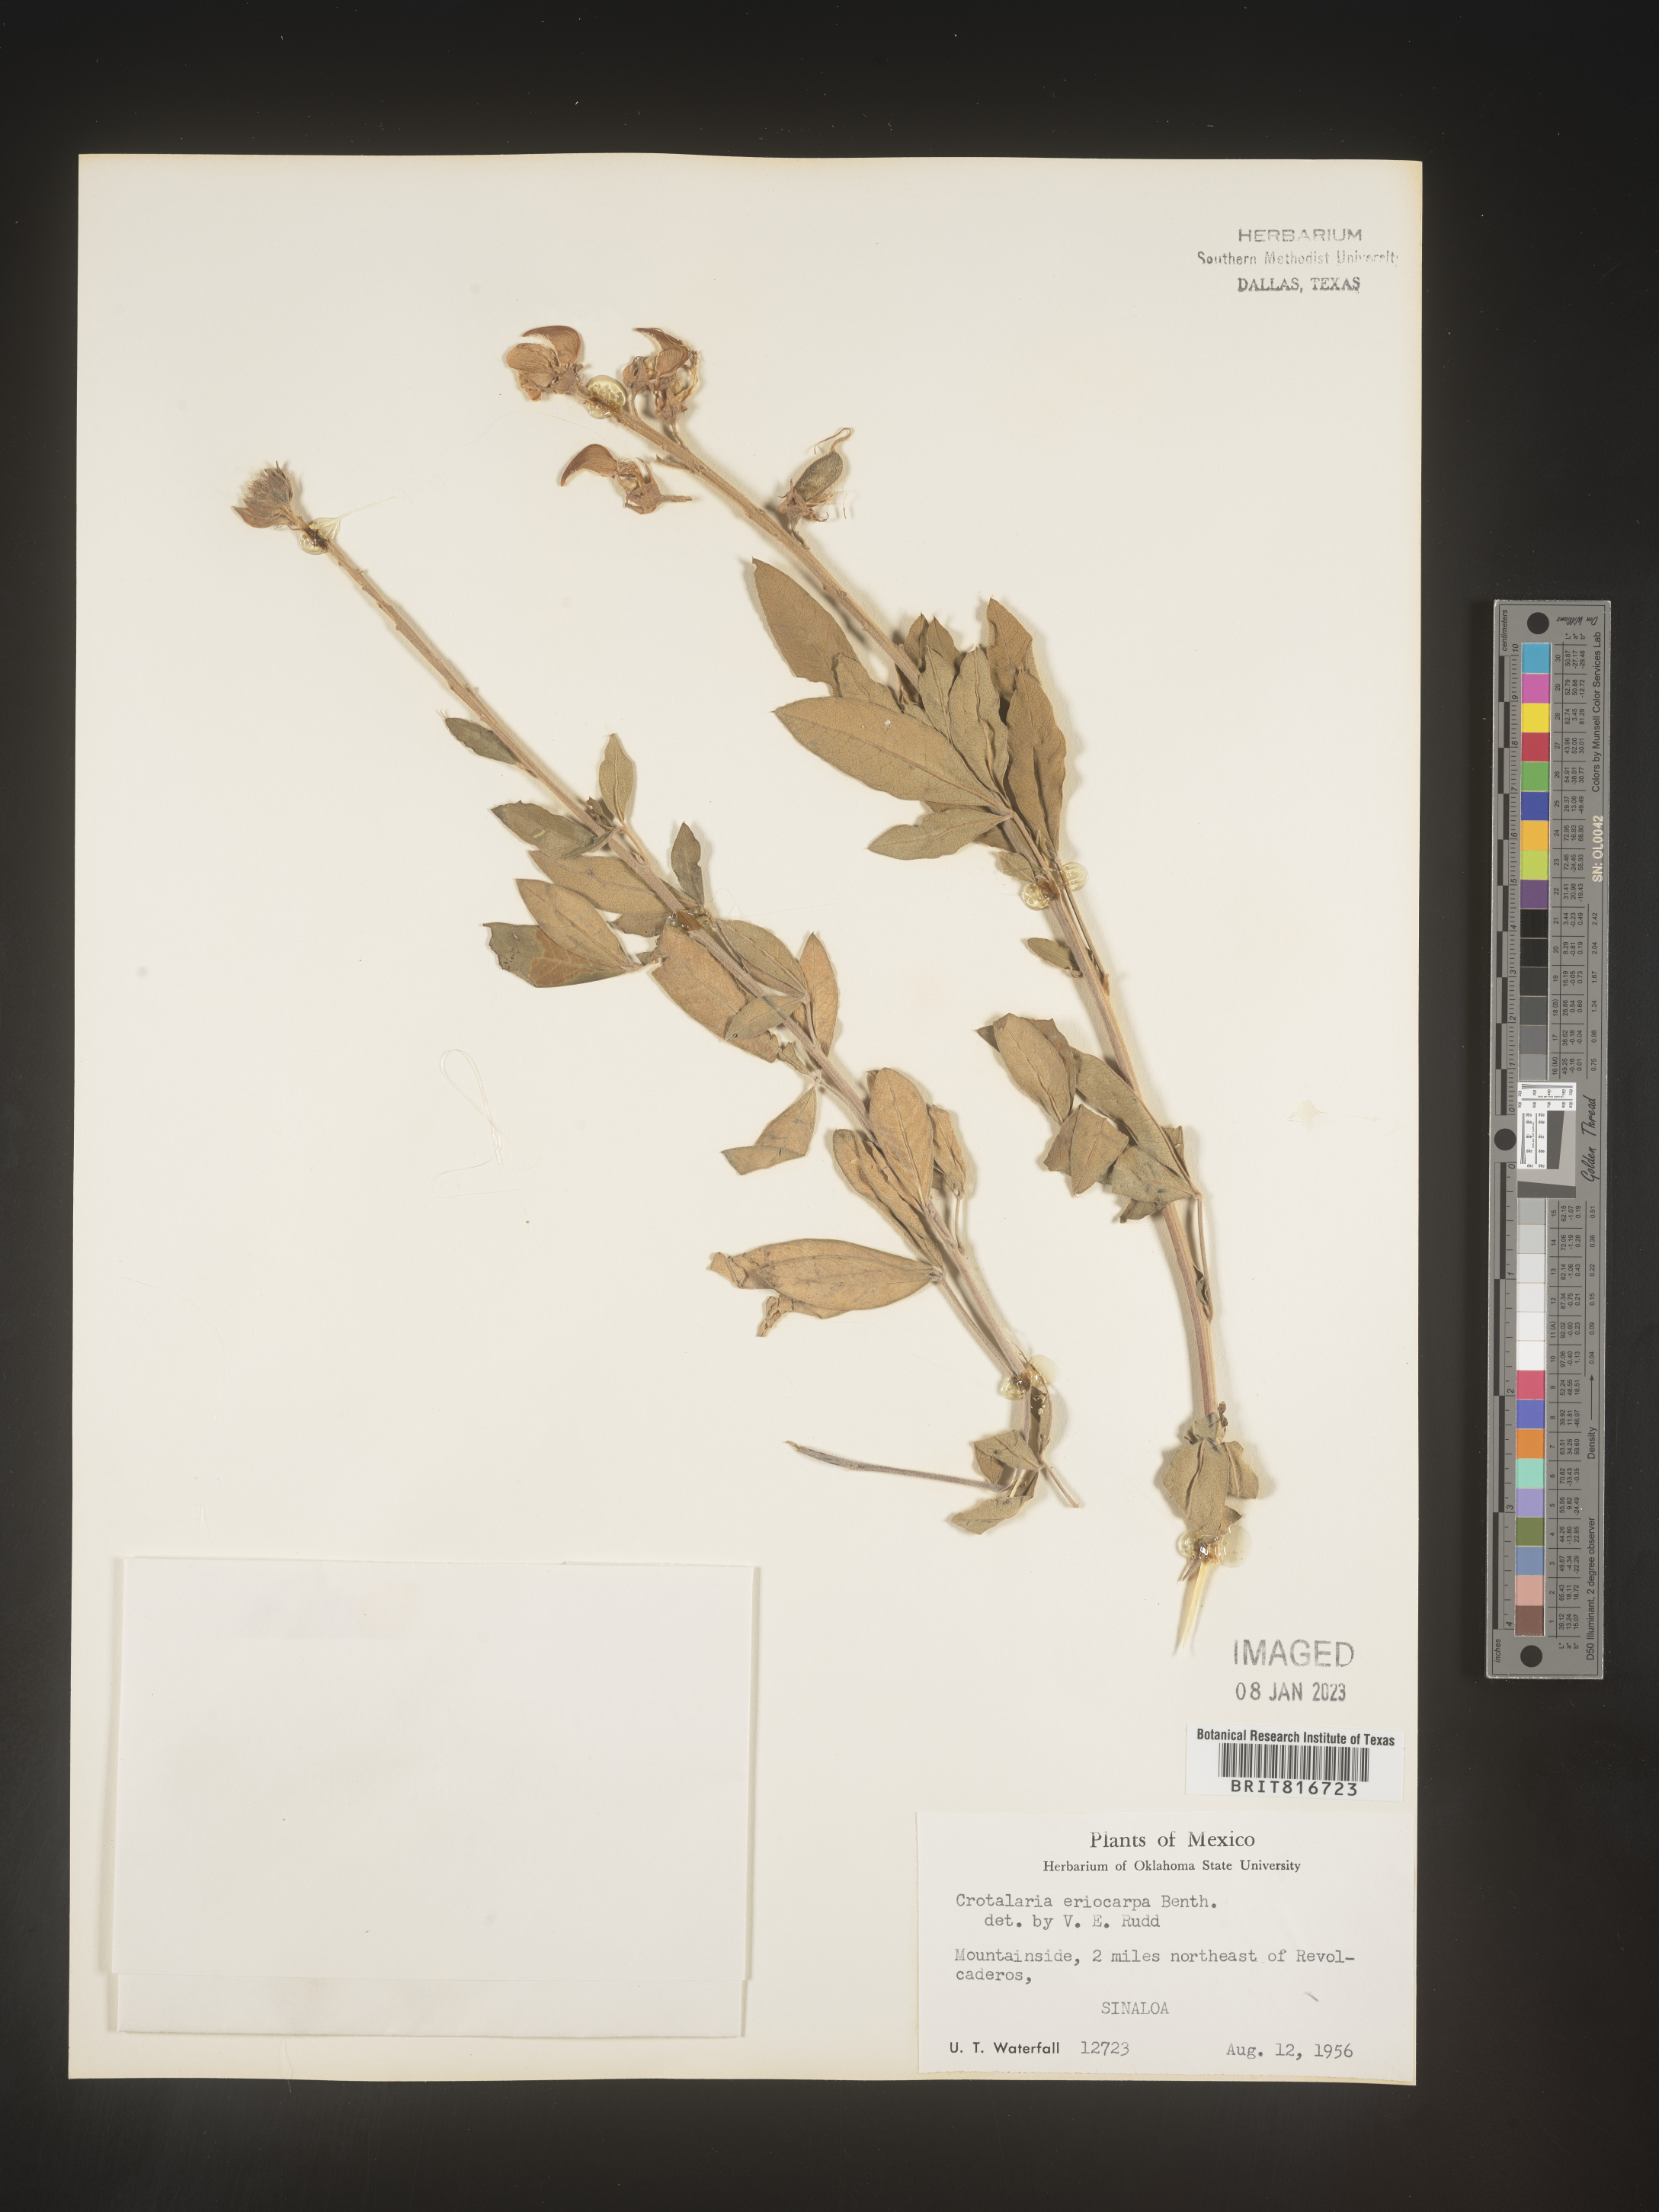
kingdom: Plantae
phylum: Tracheophyta
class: Magnoliopsida
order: Fabales
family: Fabaceae
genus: Crotalaria
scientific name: Crotalaria
